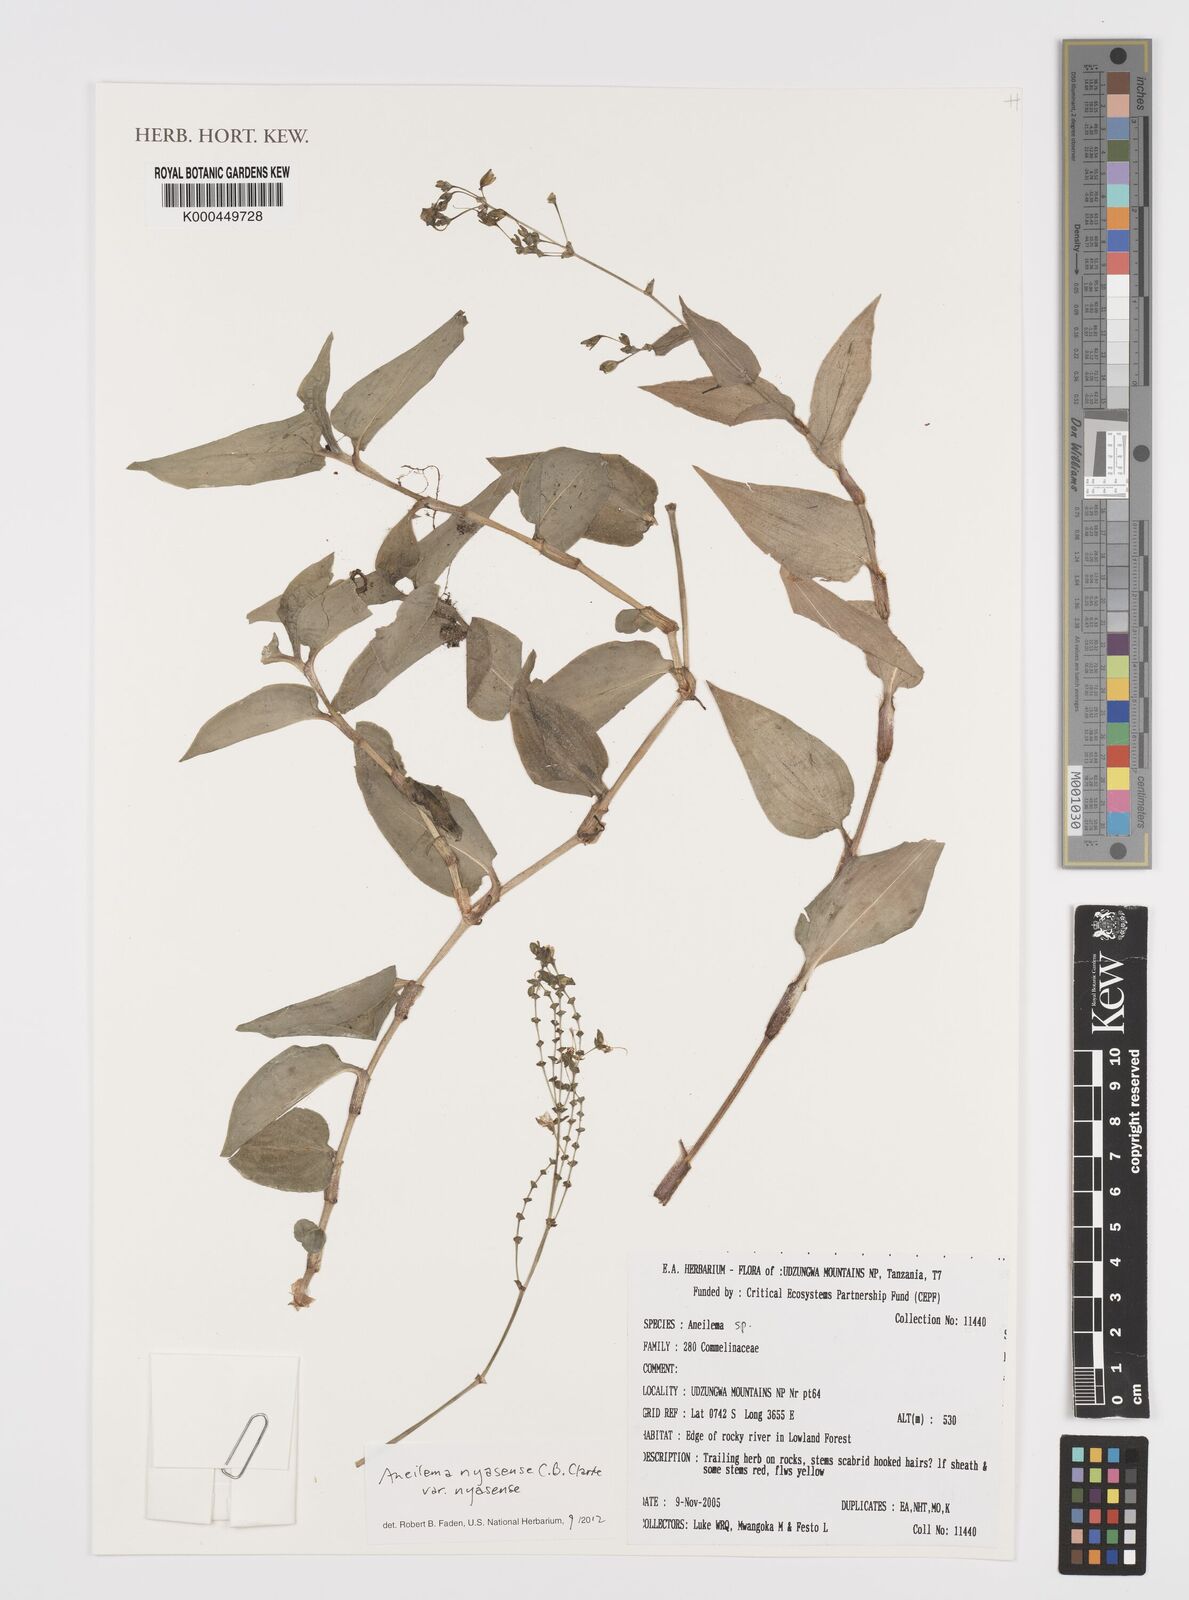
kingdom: Plantae
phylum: Tracheophyta
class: Liliopsida
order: Commelinales
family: Commelinaceae
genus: Aneilema
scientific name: Aneilema
